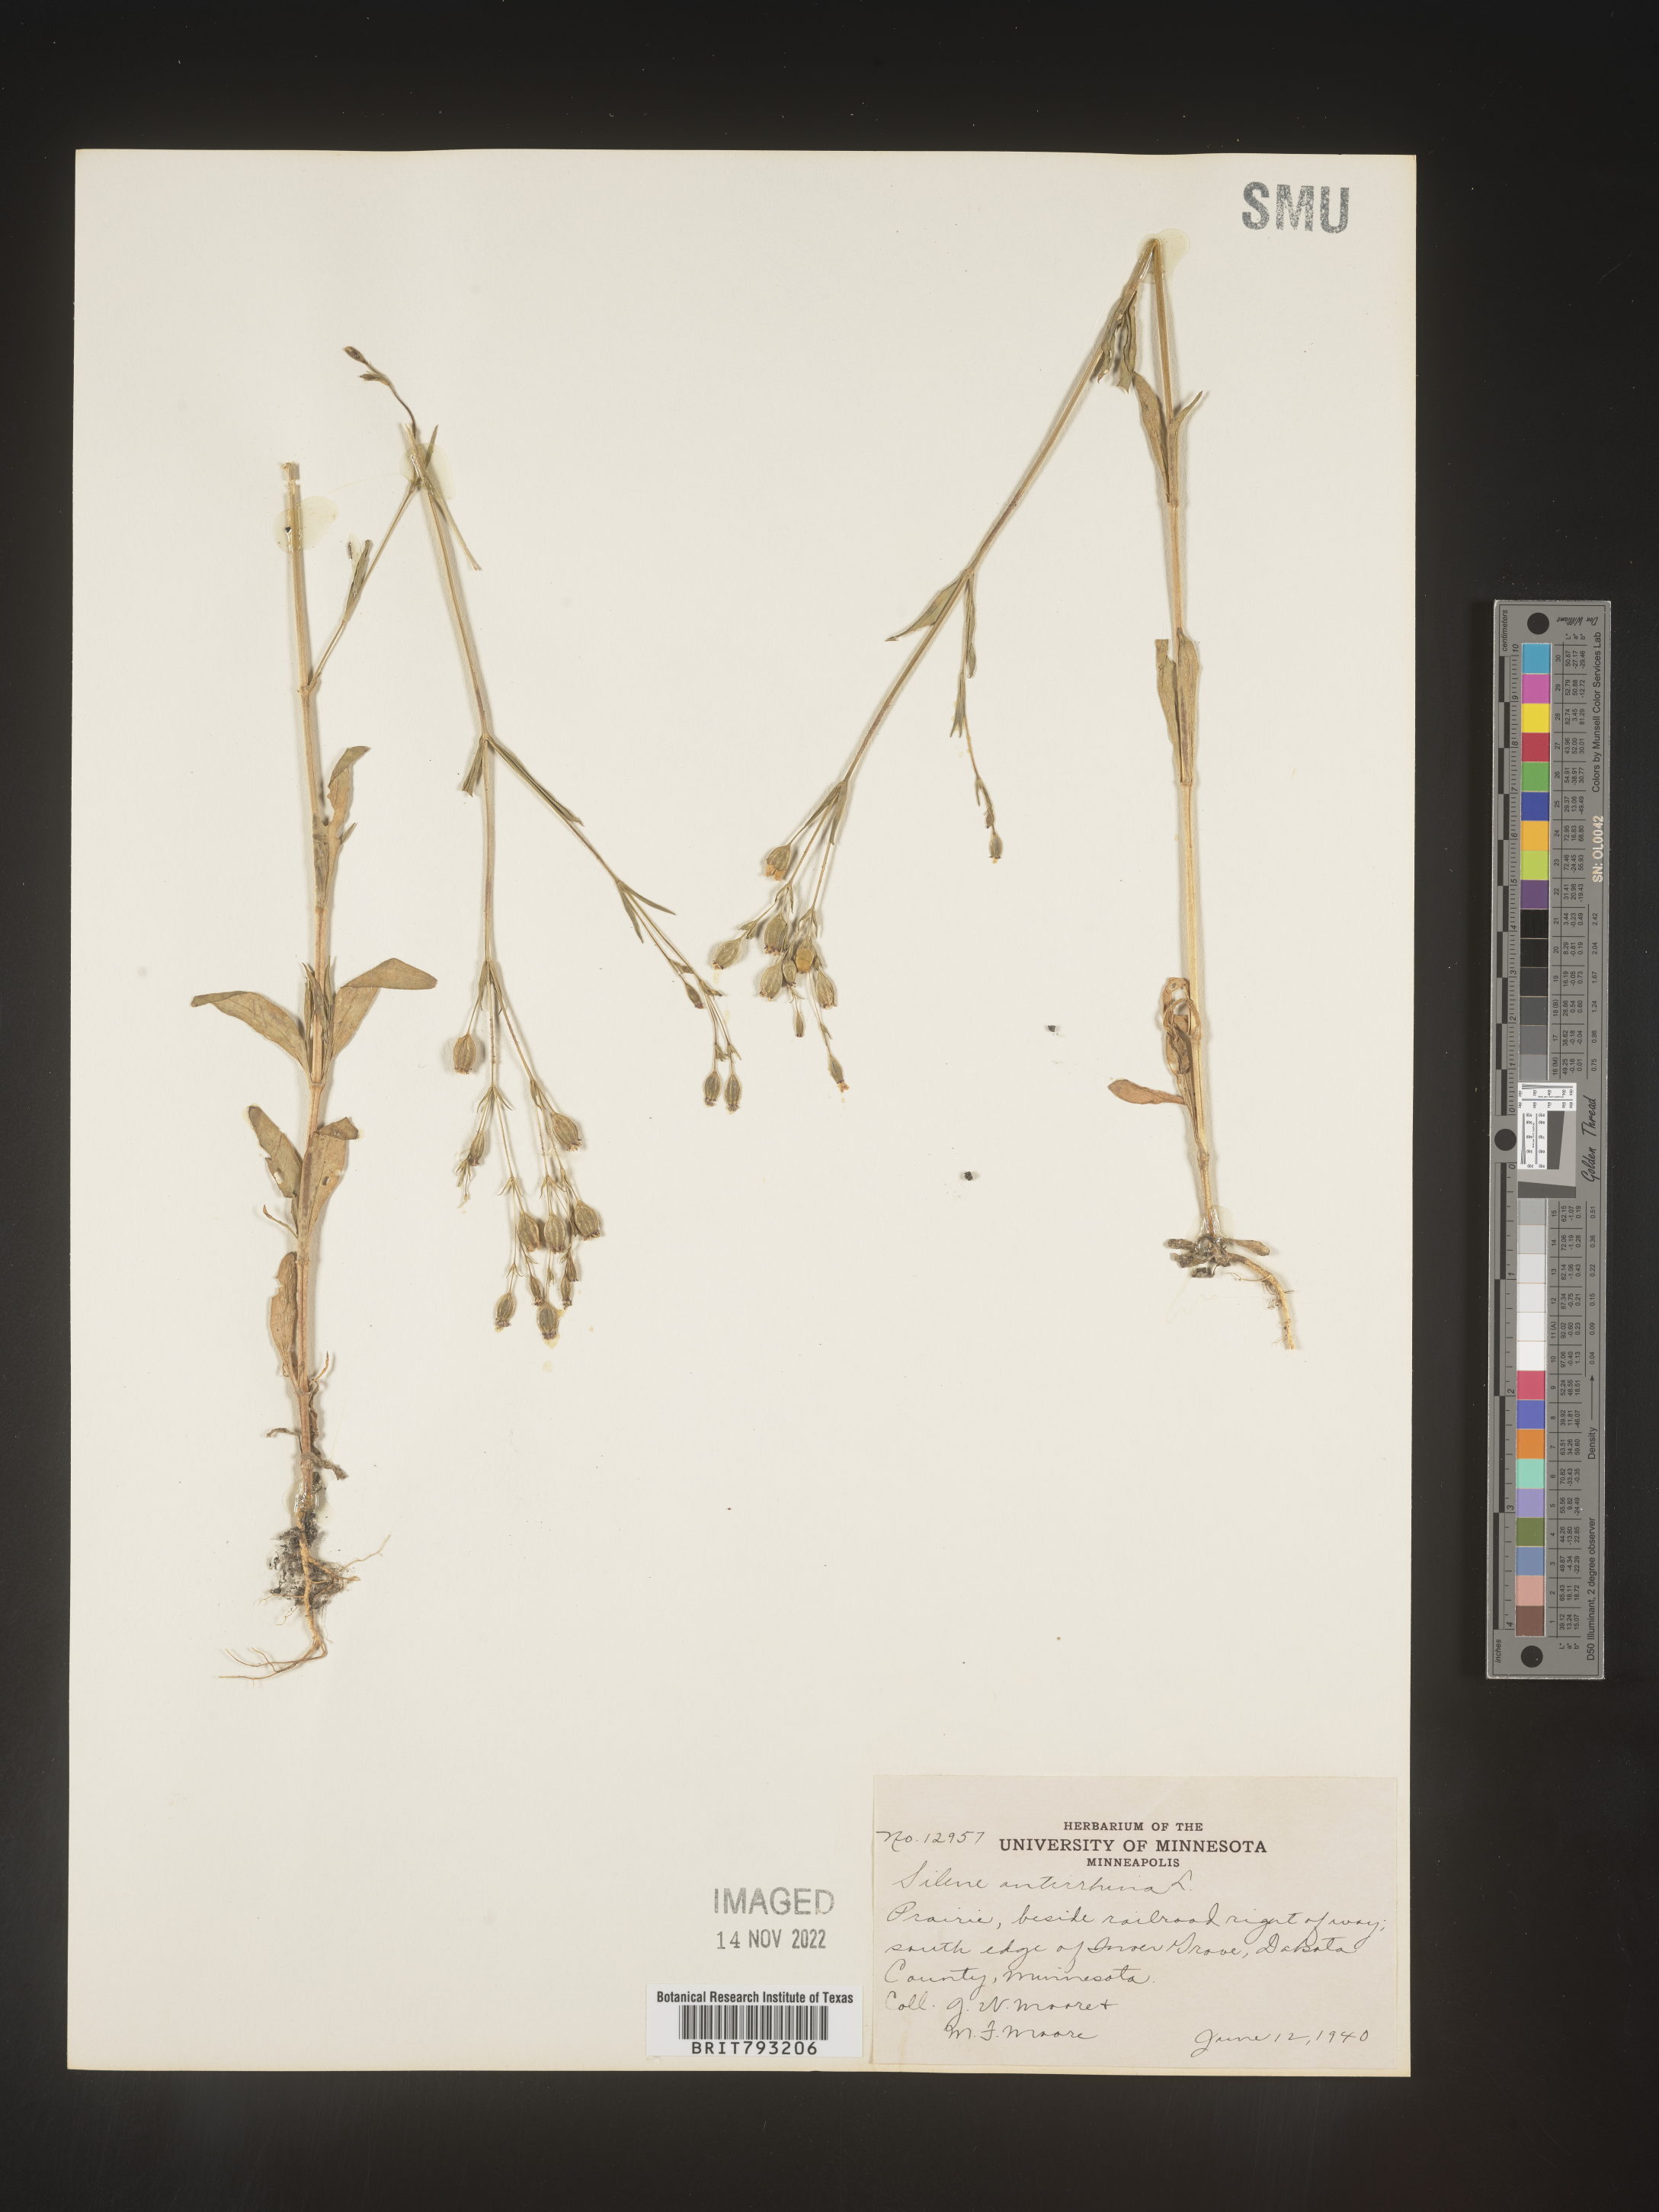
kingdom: Plantae
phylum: Tracheophyta
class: Magnoliopsida
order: Caryophyllales
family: Caryophyllaceae
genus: Silene
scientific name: Silene antirrhina
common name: Sleepy catchfly
